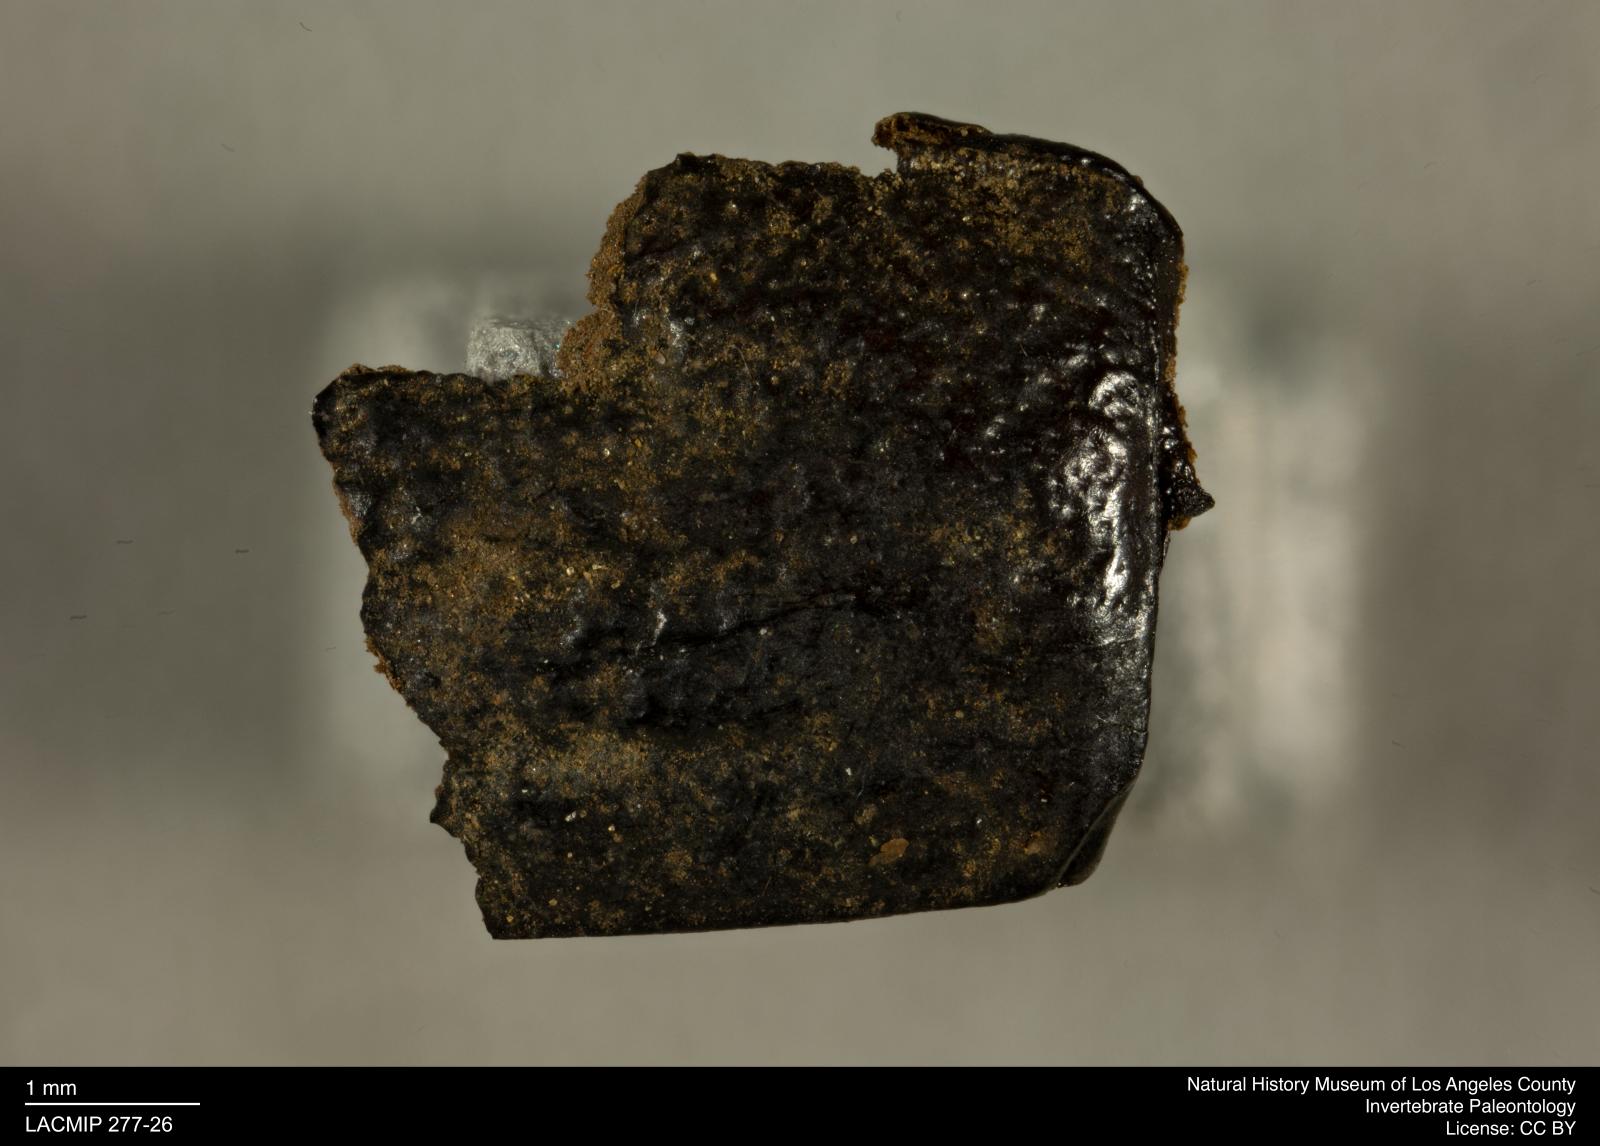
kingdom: Animalia
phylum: Arthropoda
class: Insecta
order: Coleoptera
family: Tenebrionidae
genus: Coniontis
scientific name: Coniontis abdominalis
